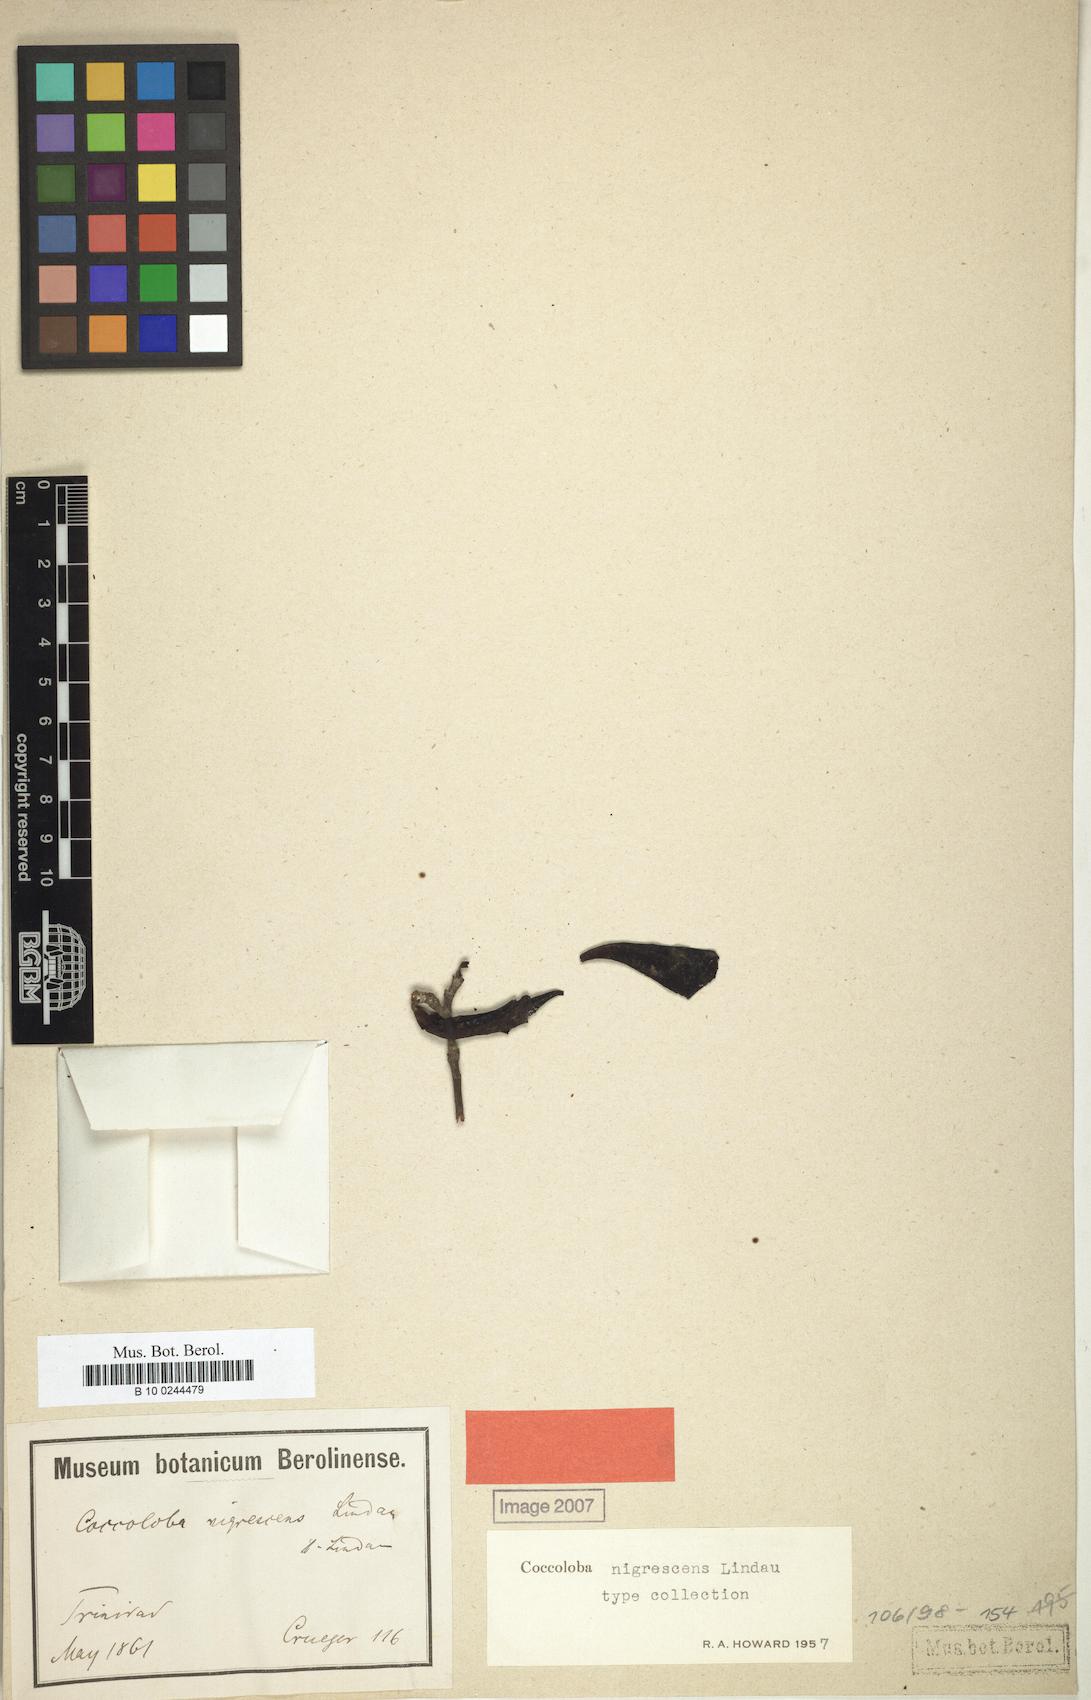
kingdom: Plantae
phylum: Tracheophyta
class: Magnoliopsida
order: Caryophyllales
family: Polygonaceae
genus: Coccoloba
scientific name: Coccoloba nigrescens
